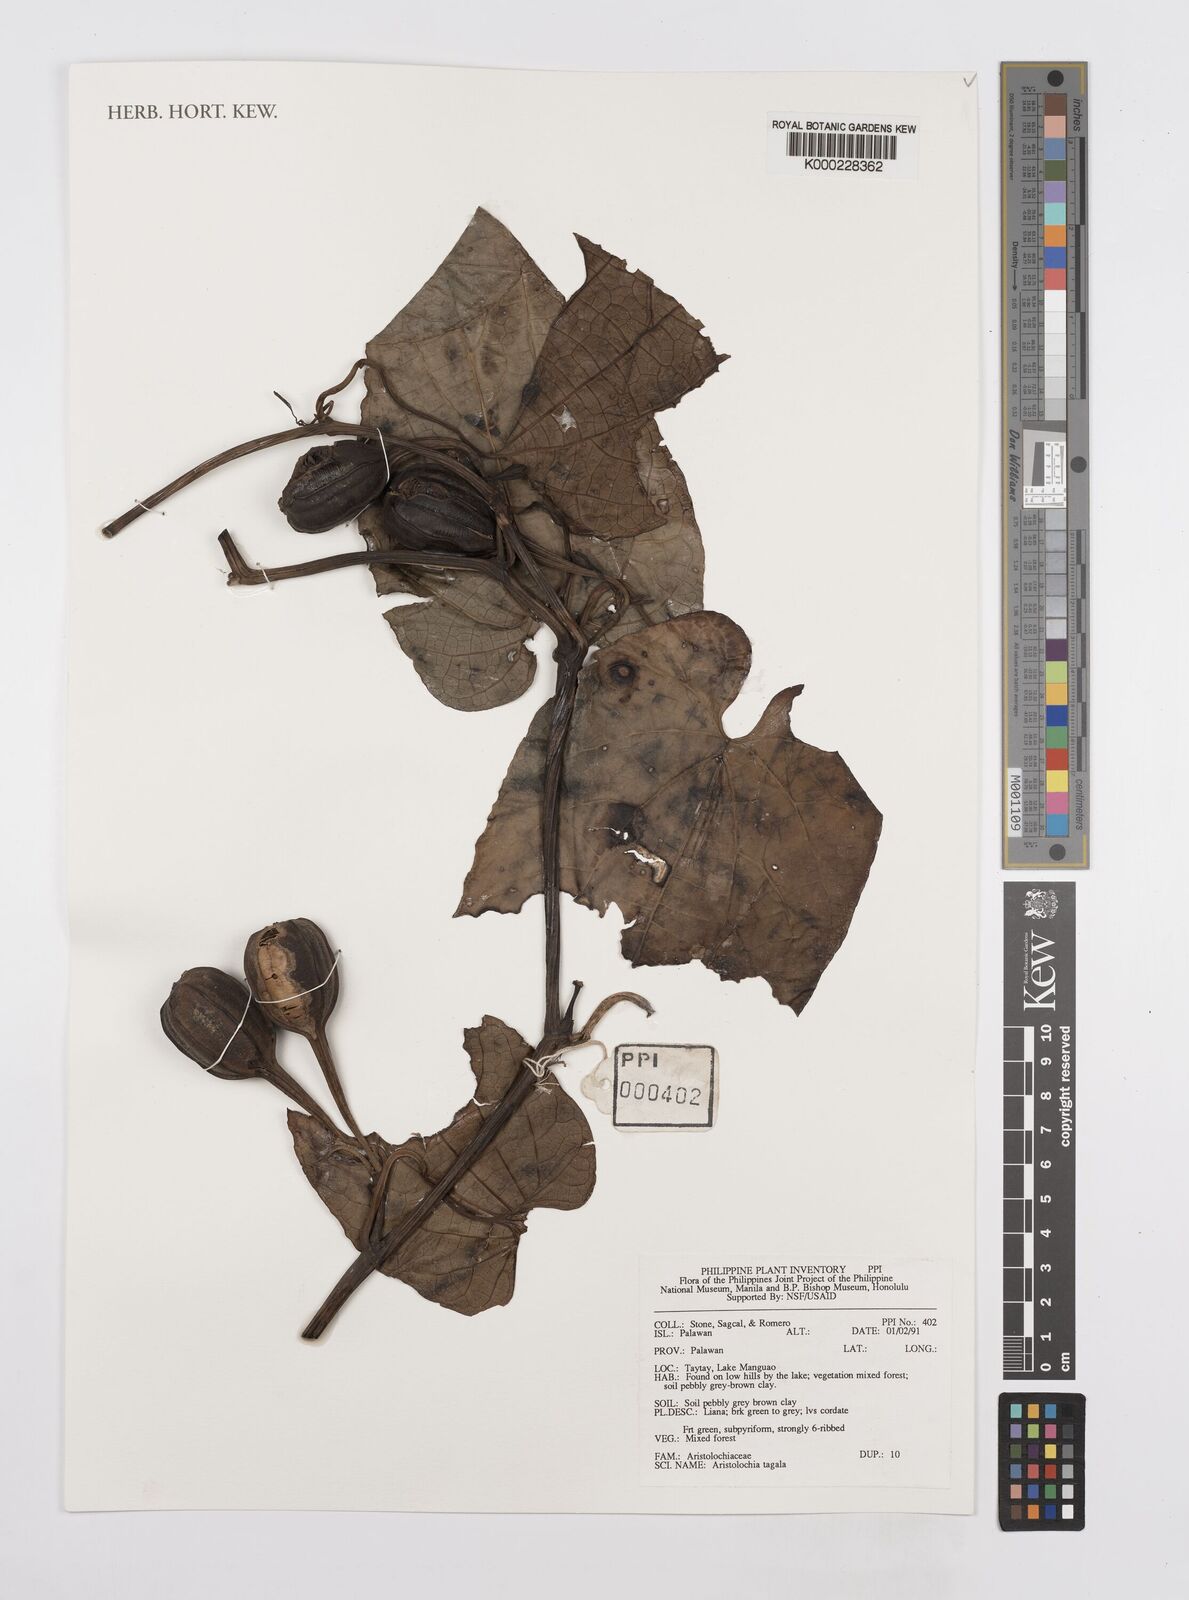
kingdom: Plantae
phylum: Tracheophyta
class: Magnoliopsida
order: Piperales
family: Aristolochiaceae
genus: Aristolochia
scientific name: Aristolochia acuminata
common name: Indian birthwort
